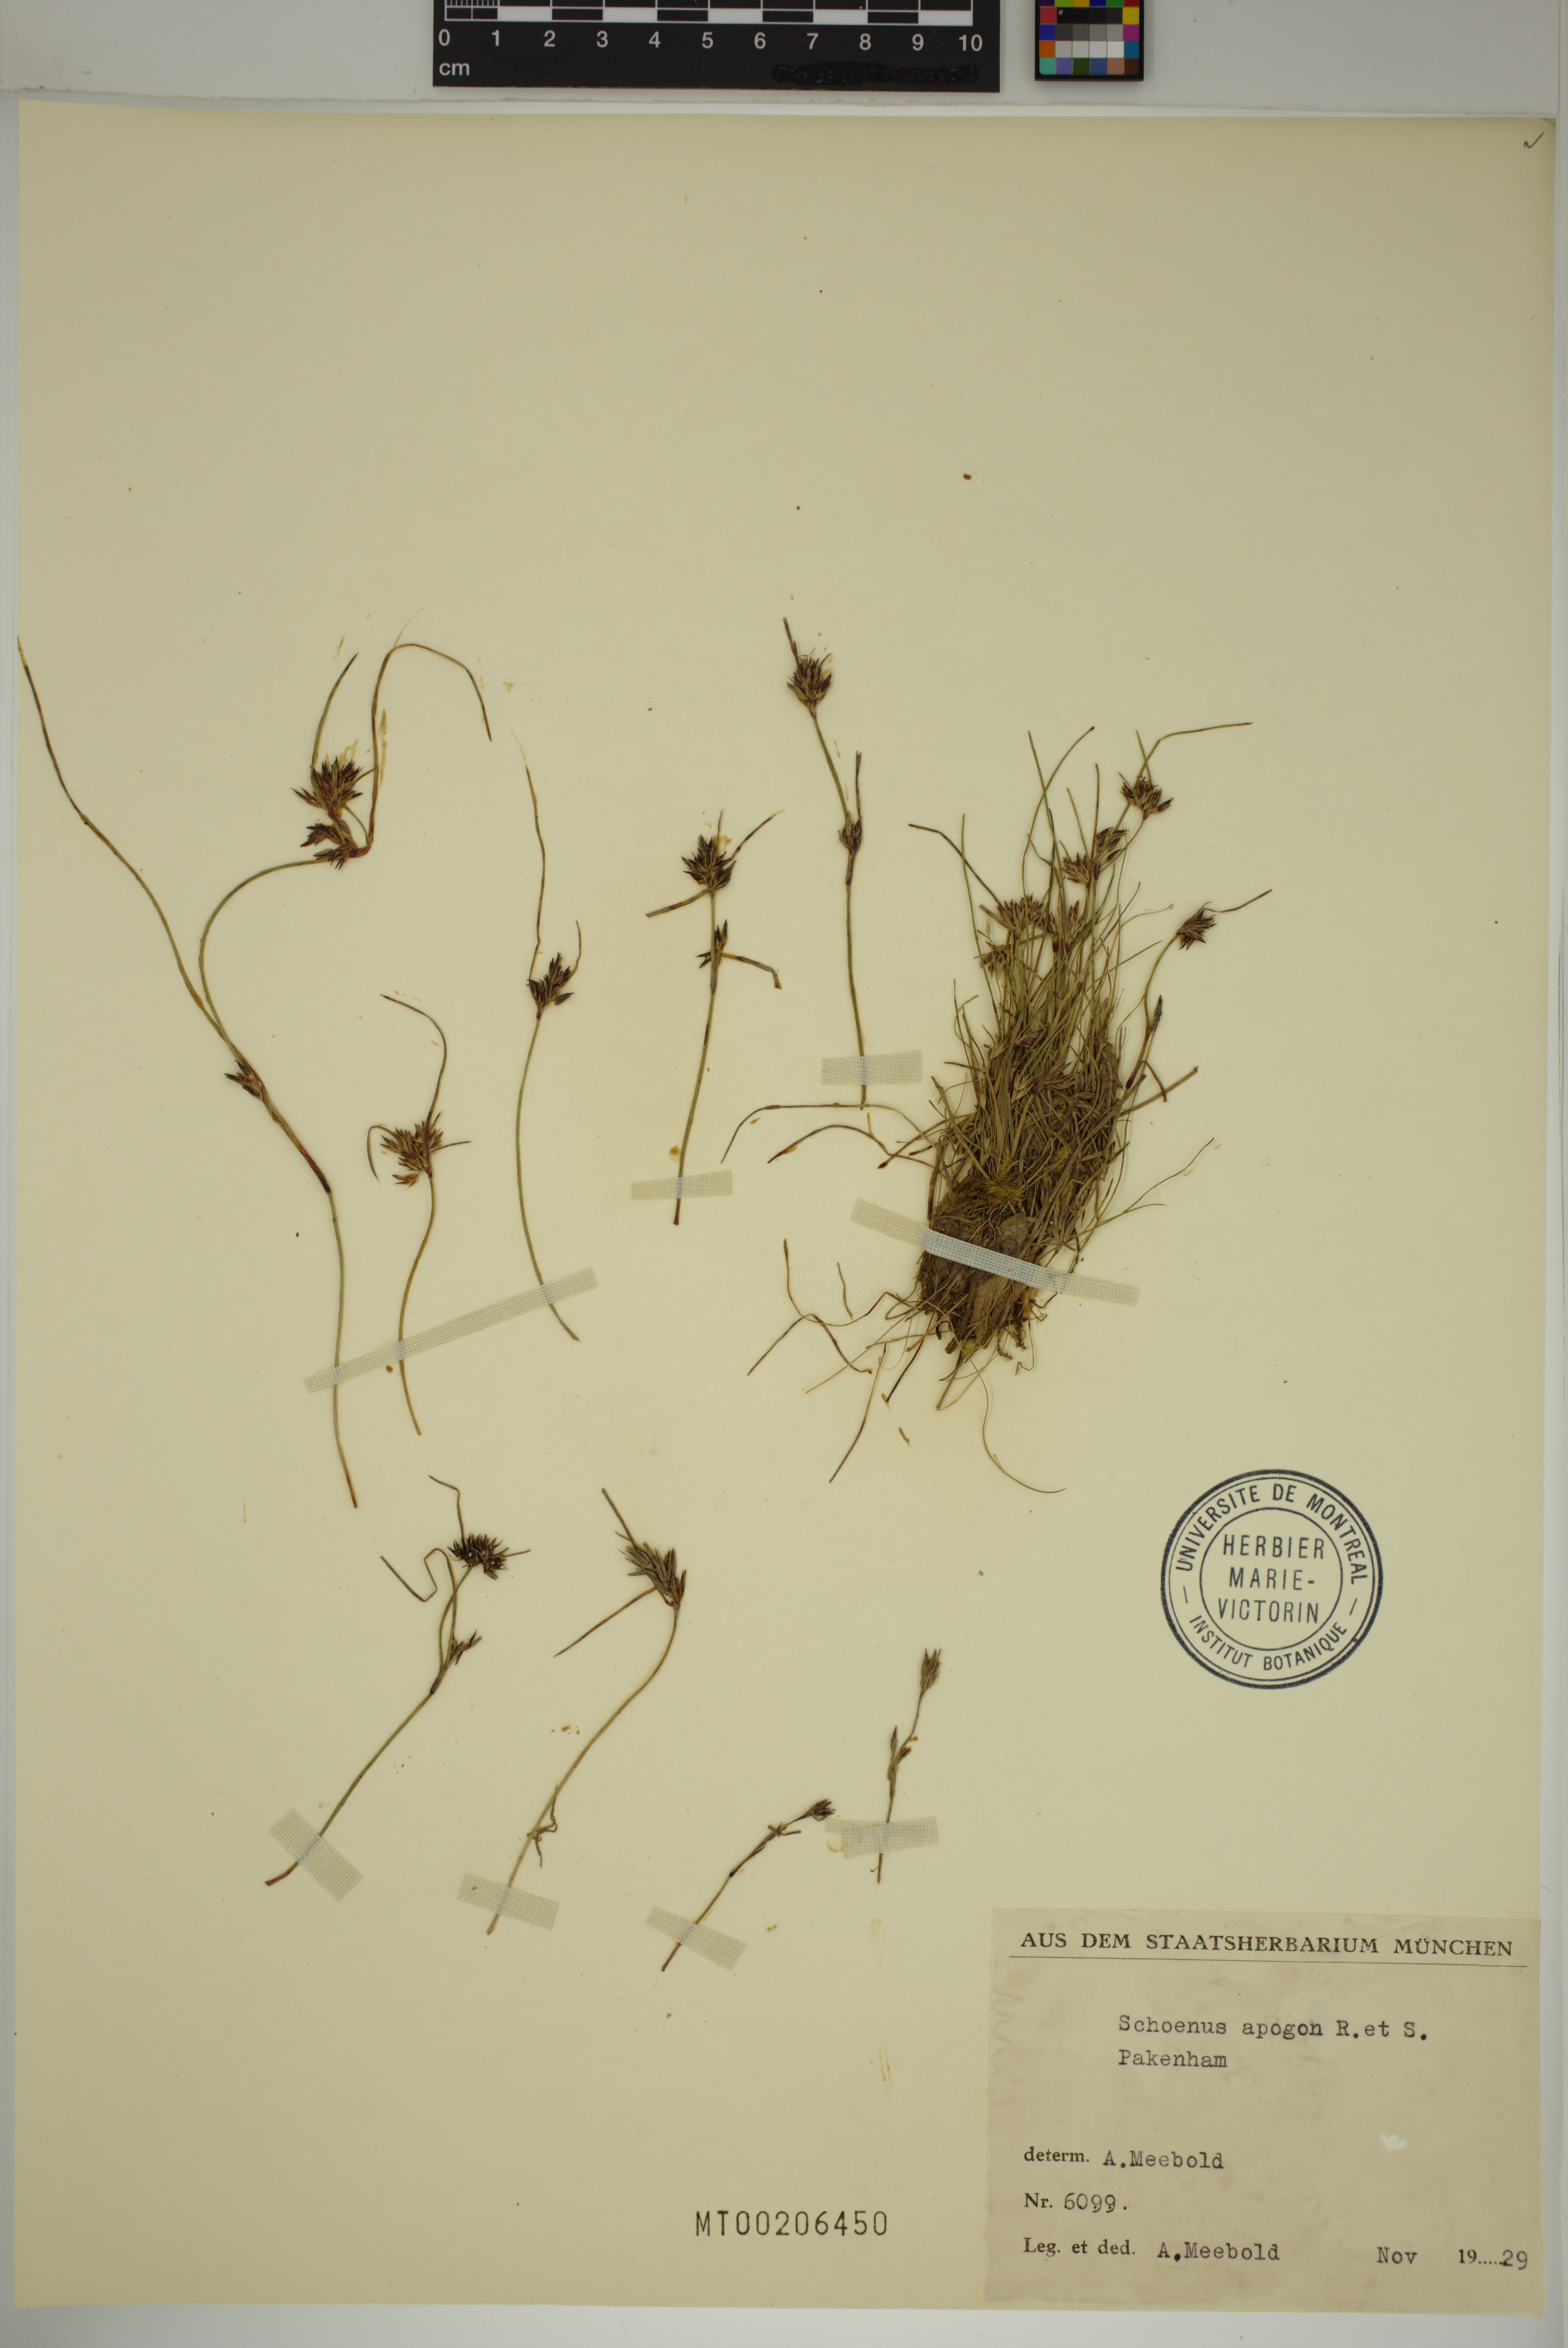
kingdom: Plantae
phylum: Tracheophyta
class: Liliopsida
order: Poales
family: Cyperaceae
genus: Schoenus
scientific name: Schoenus apogon
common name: Smooth bogrush
